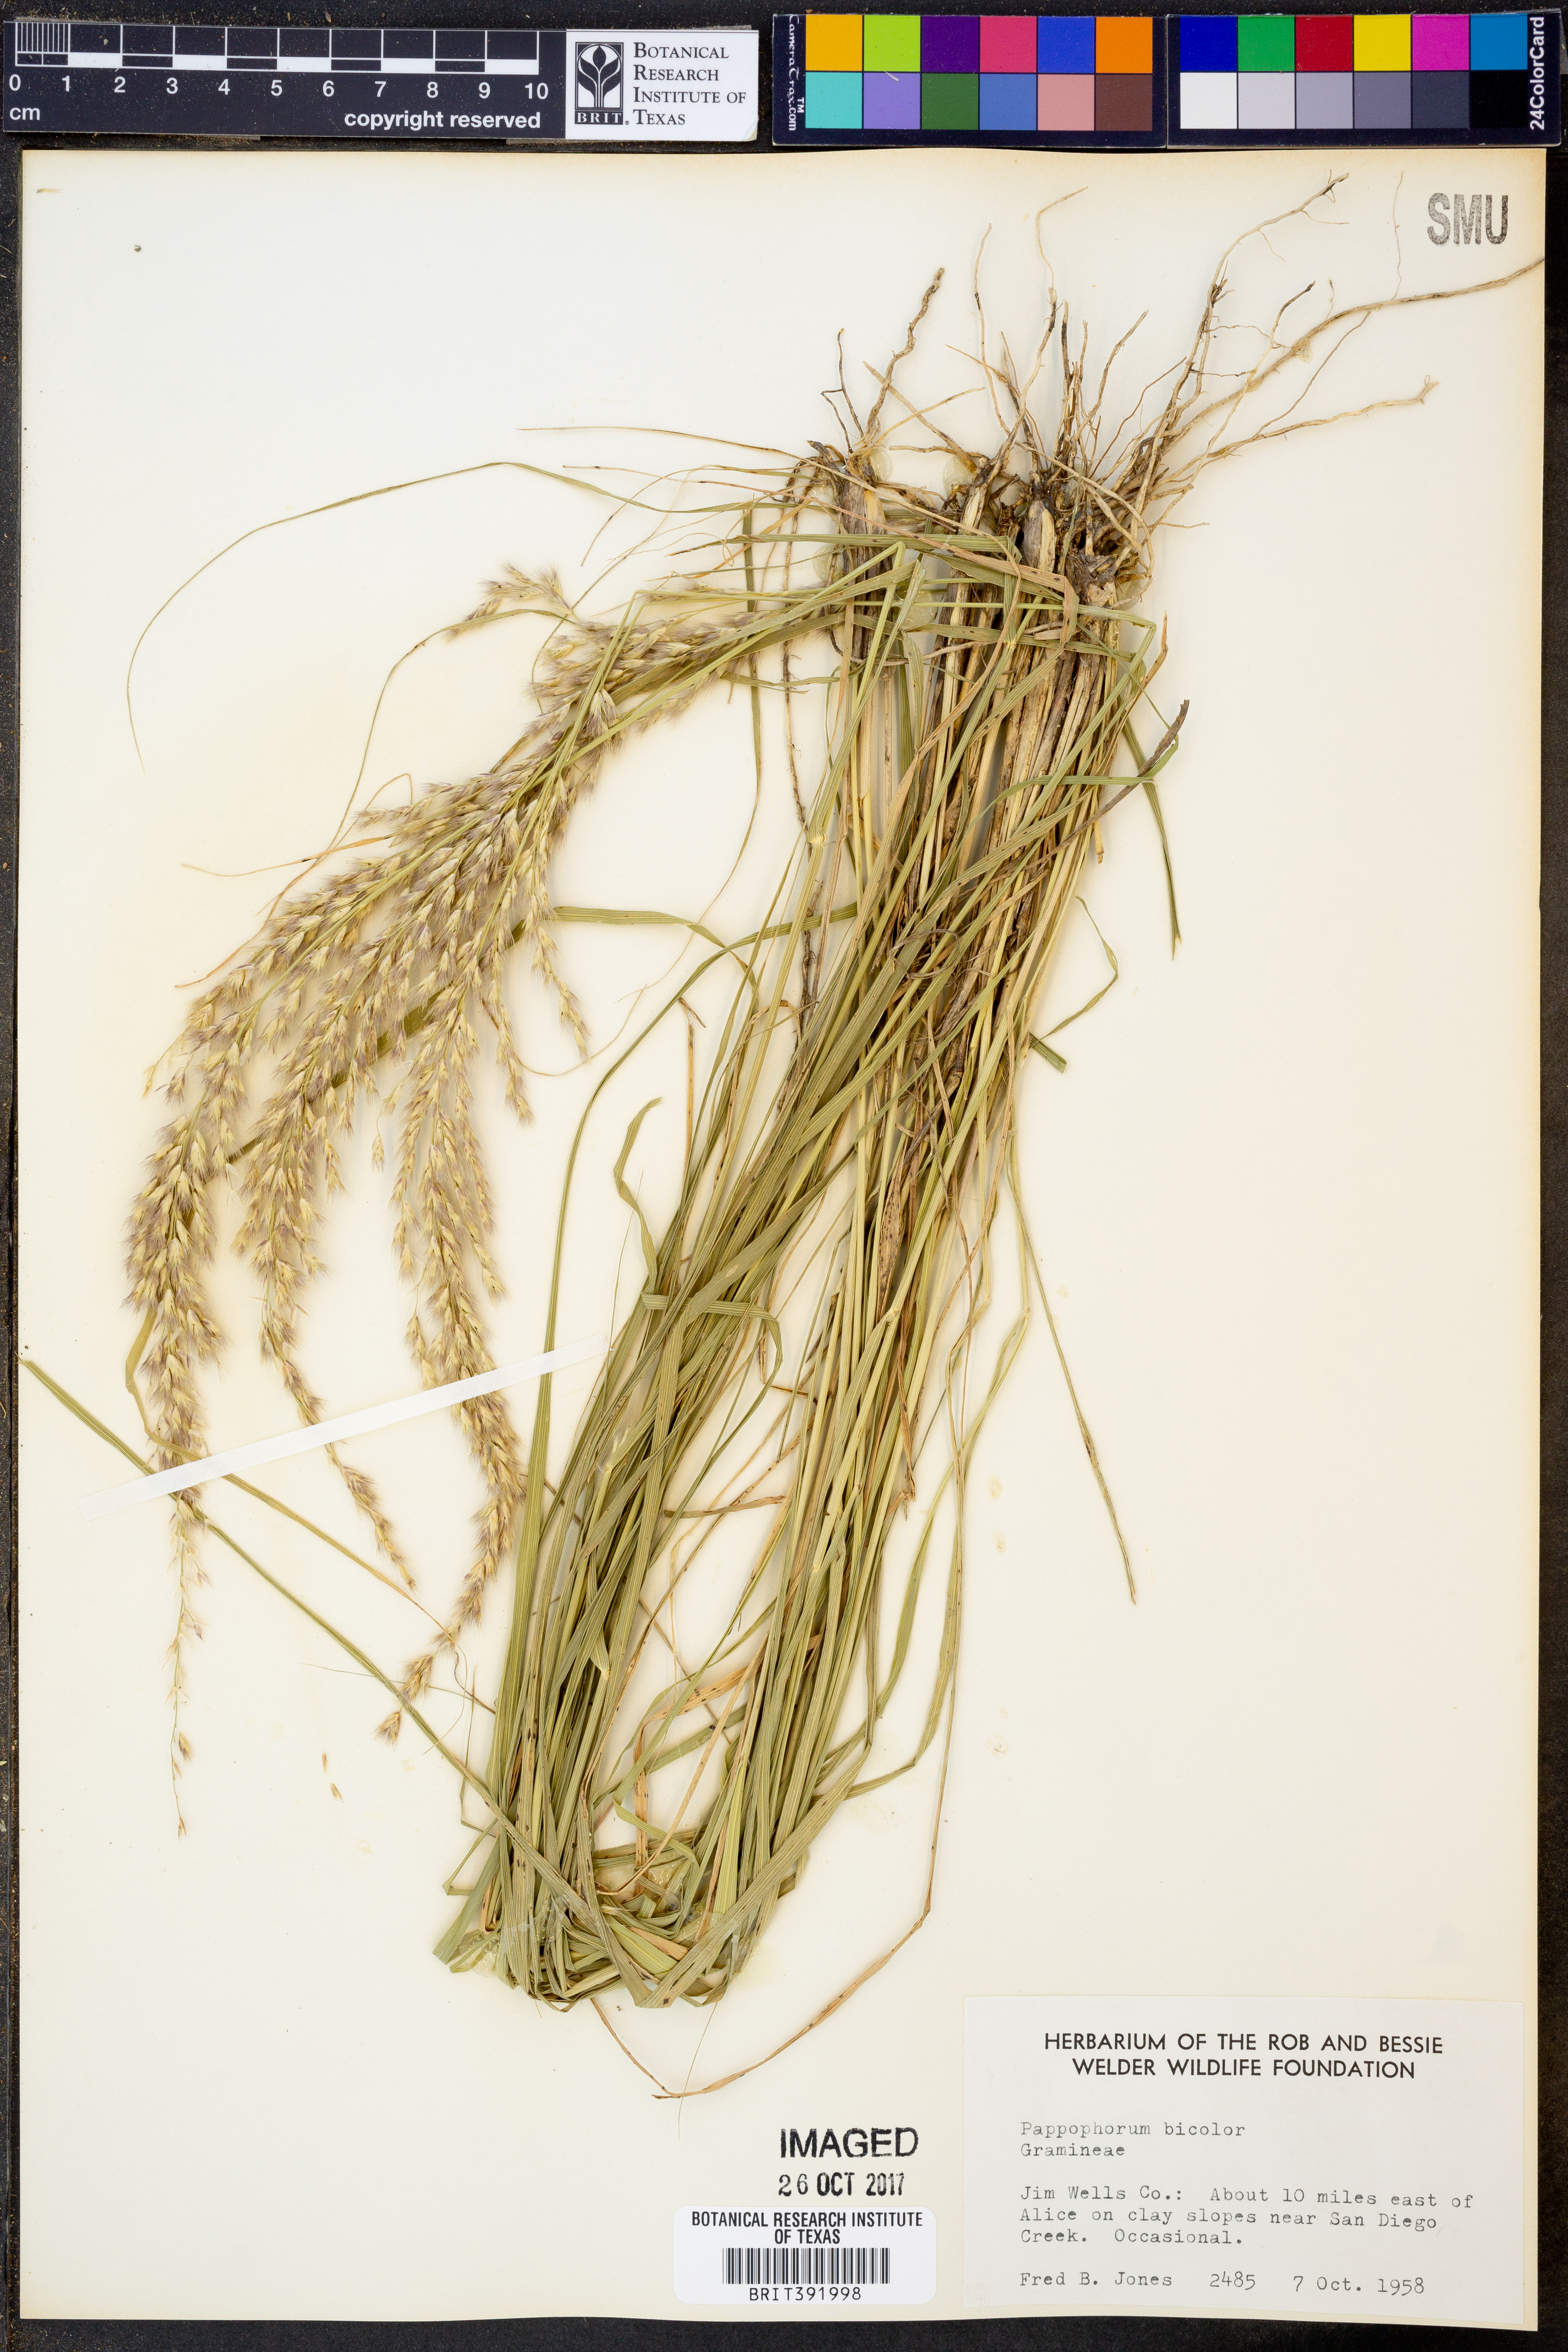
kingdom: Plantae
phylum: Tracheophyta
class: Liliopsida
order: Poales
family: Poaceae
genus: Pappophorum
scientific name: Pappophorum bicolor
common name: Pink pappus grass
